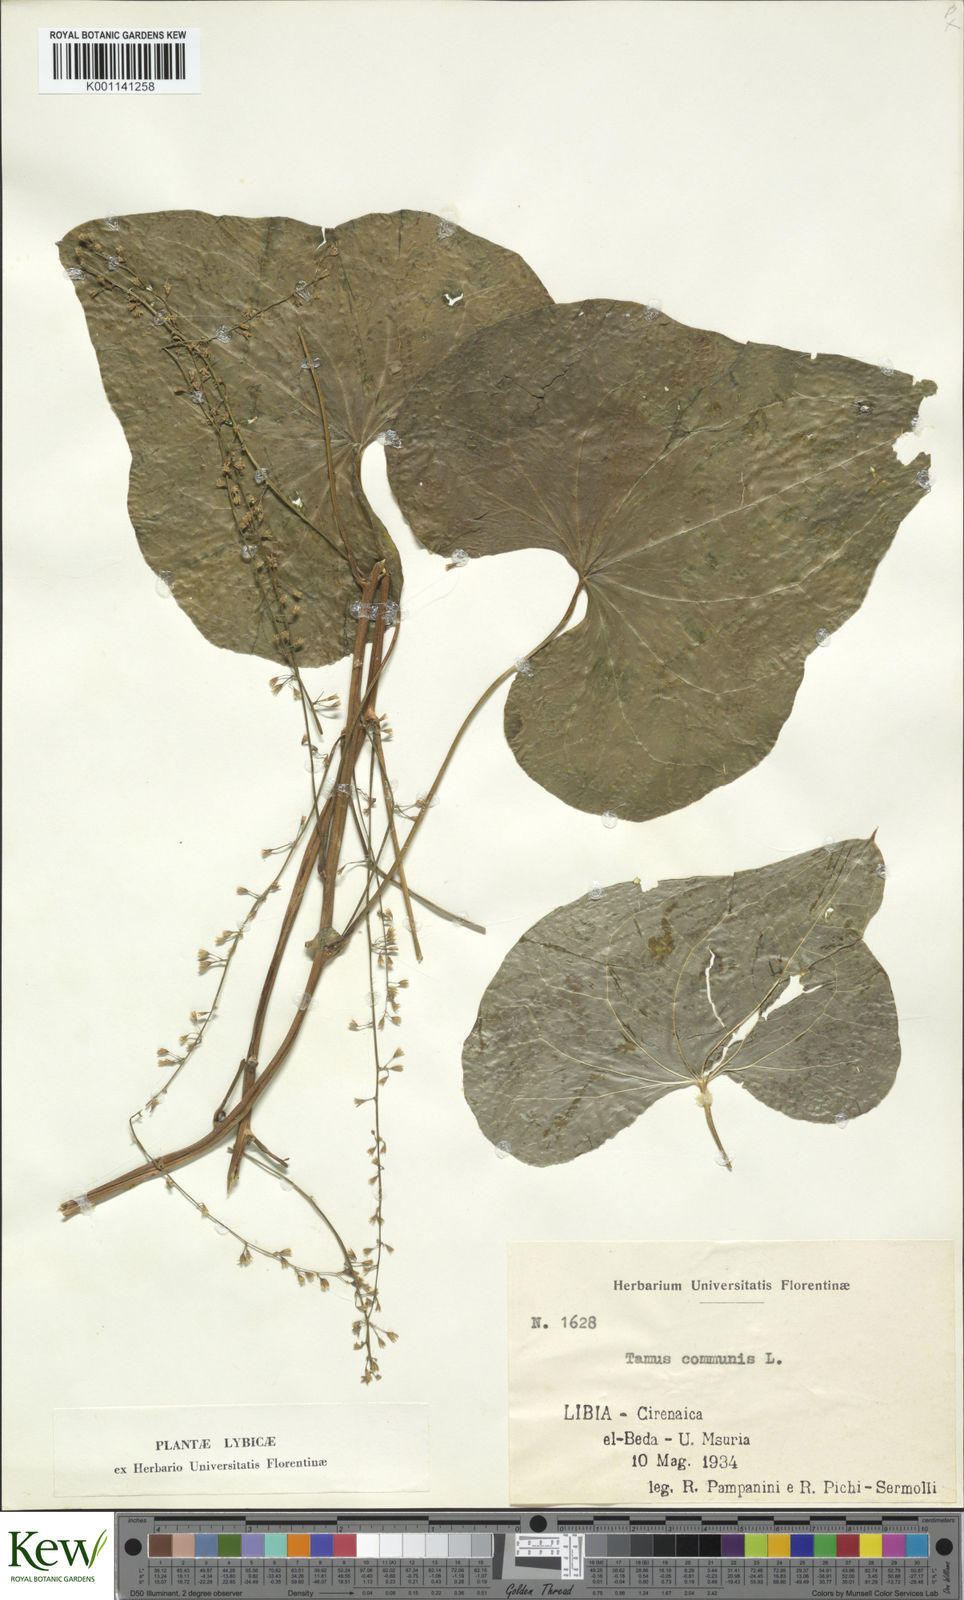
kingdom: Plantae
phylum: Tracheophyta
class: Liliopsida
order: Dioscoreales
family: Dioscoreaceae
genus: Dioscorea
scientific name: Dioscorea communis
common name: Black-bindweed
